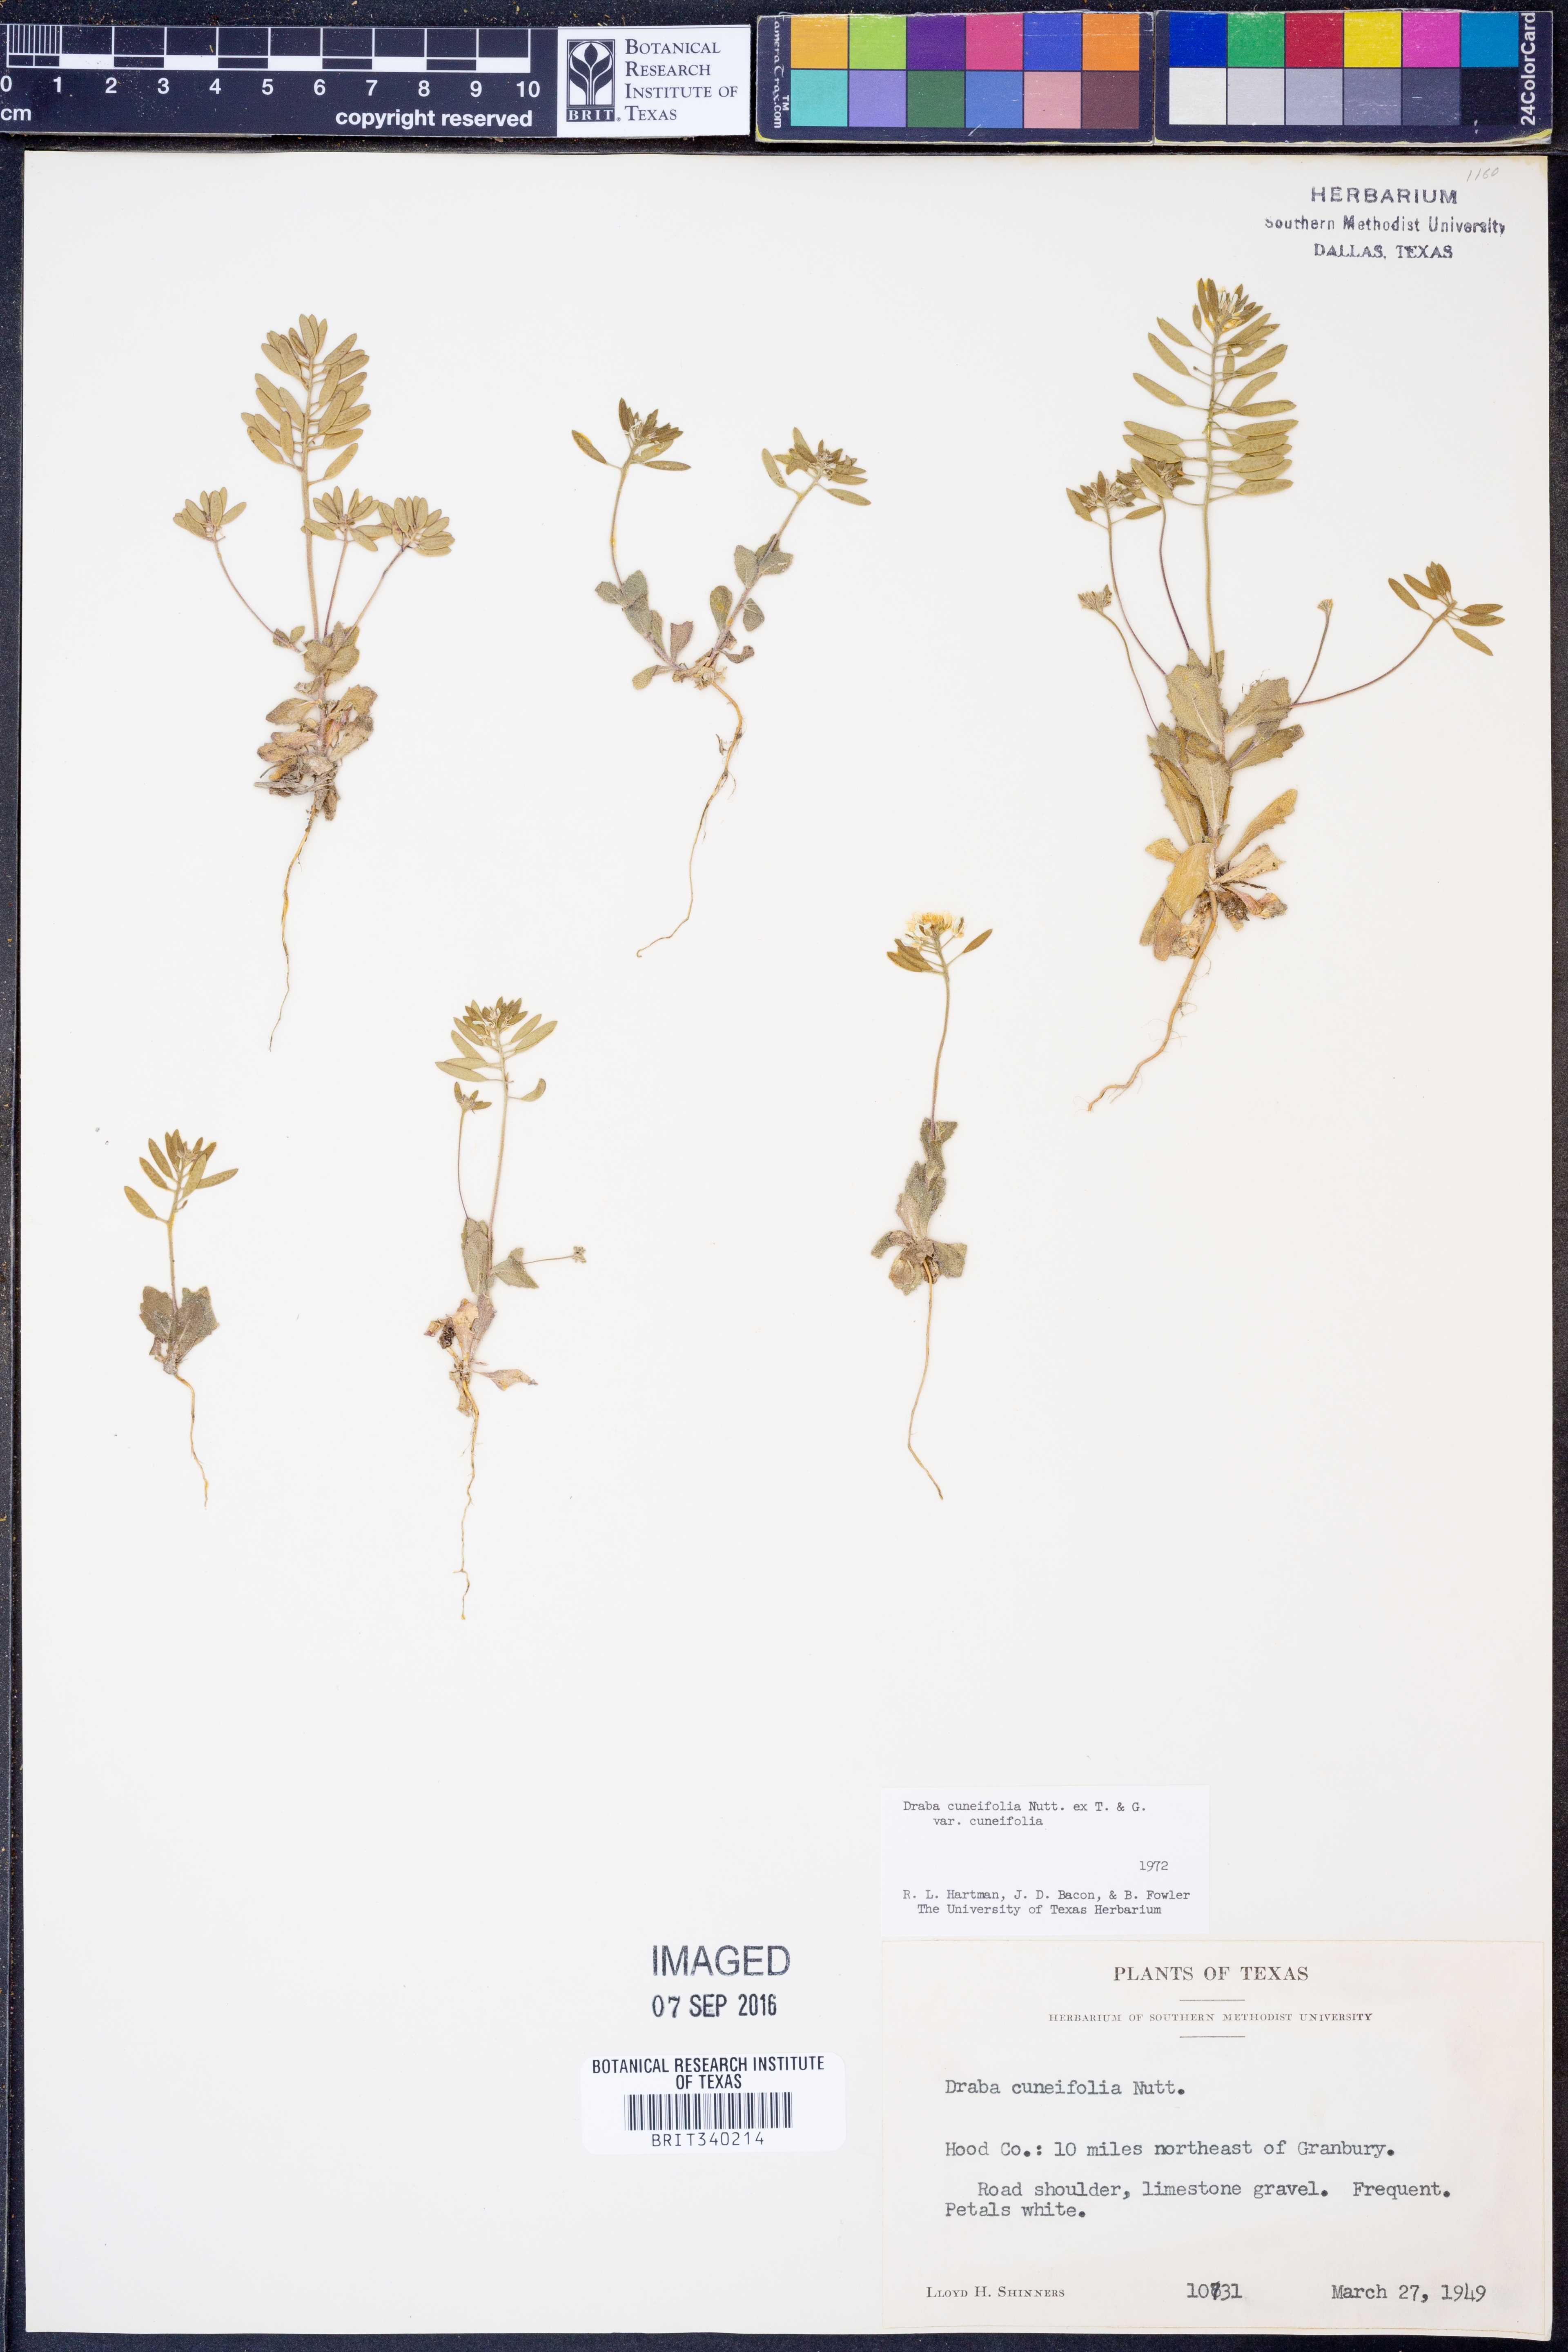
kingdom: Plantae
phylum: Tracheophyta
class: Magnoliopsida
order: Brassicales
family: Brassicaceae
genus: Tomostima
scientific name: Tomostima cuneifolia
